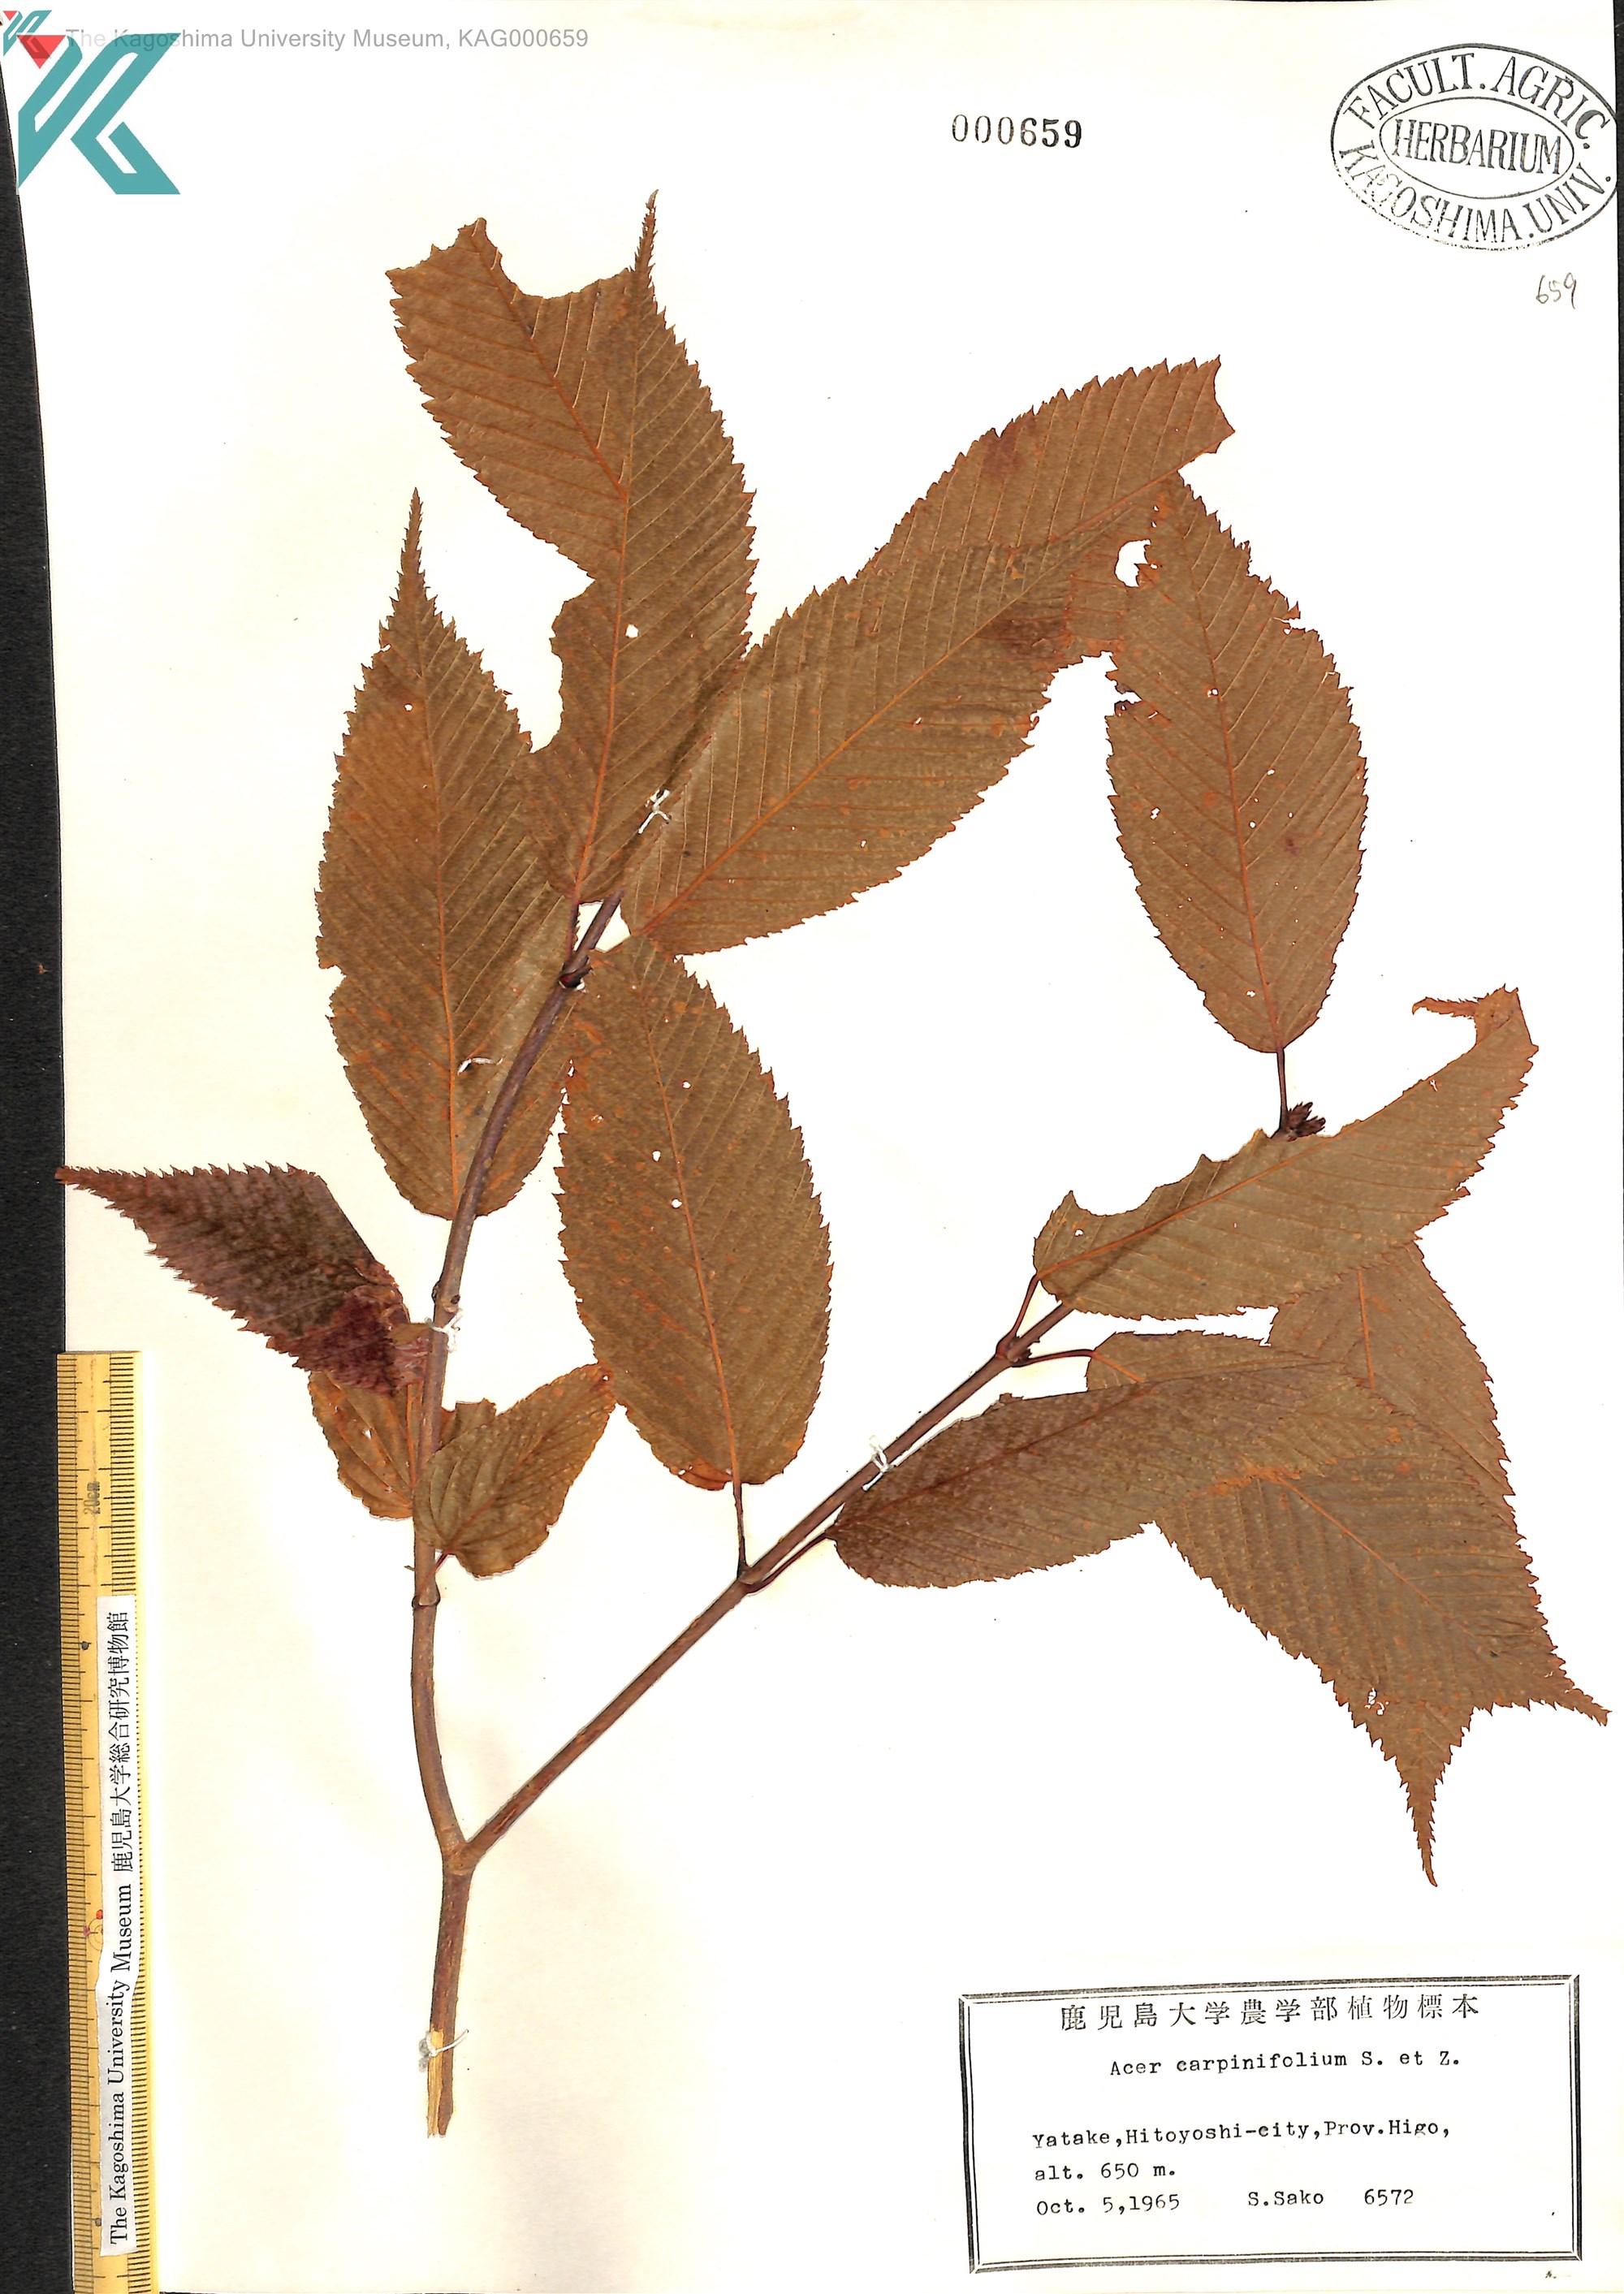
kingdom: Plantae
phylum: Tracheophyta
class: Magnoliopsida
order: Sapindales
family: Sapindaceae
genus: Acer
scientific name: Acer carpinifolium
